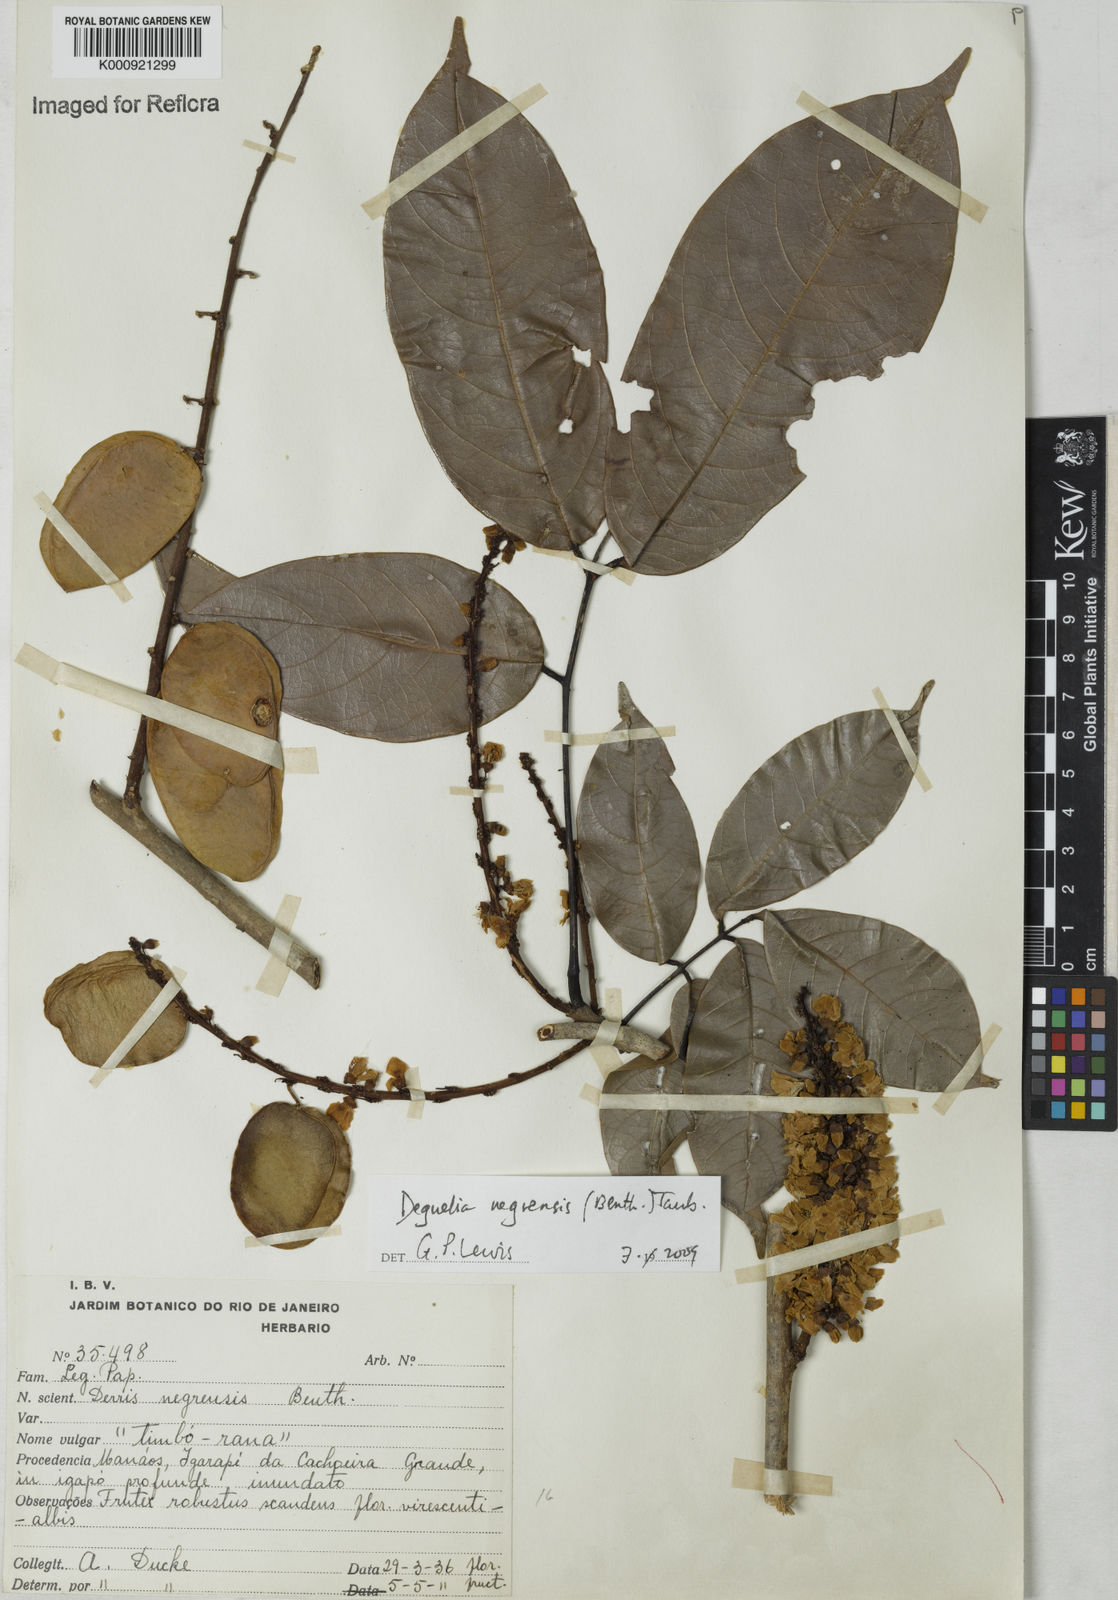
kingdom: Plantae
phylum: Tracheophyta
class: Magnoliopsida
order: Fabales
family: Fabaceae
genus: Deguelia
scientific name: Deguelia negrensis
